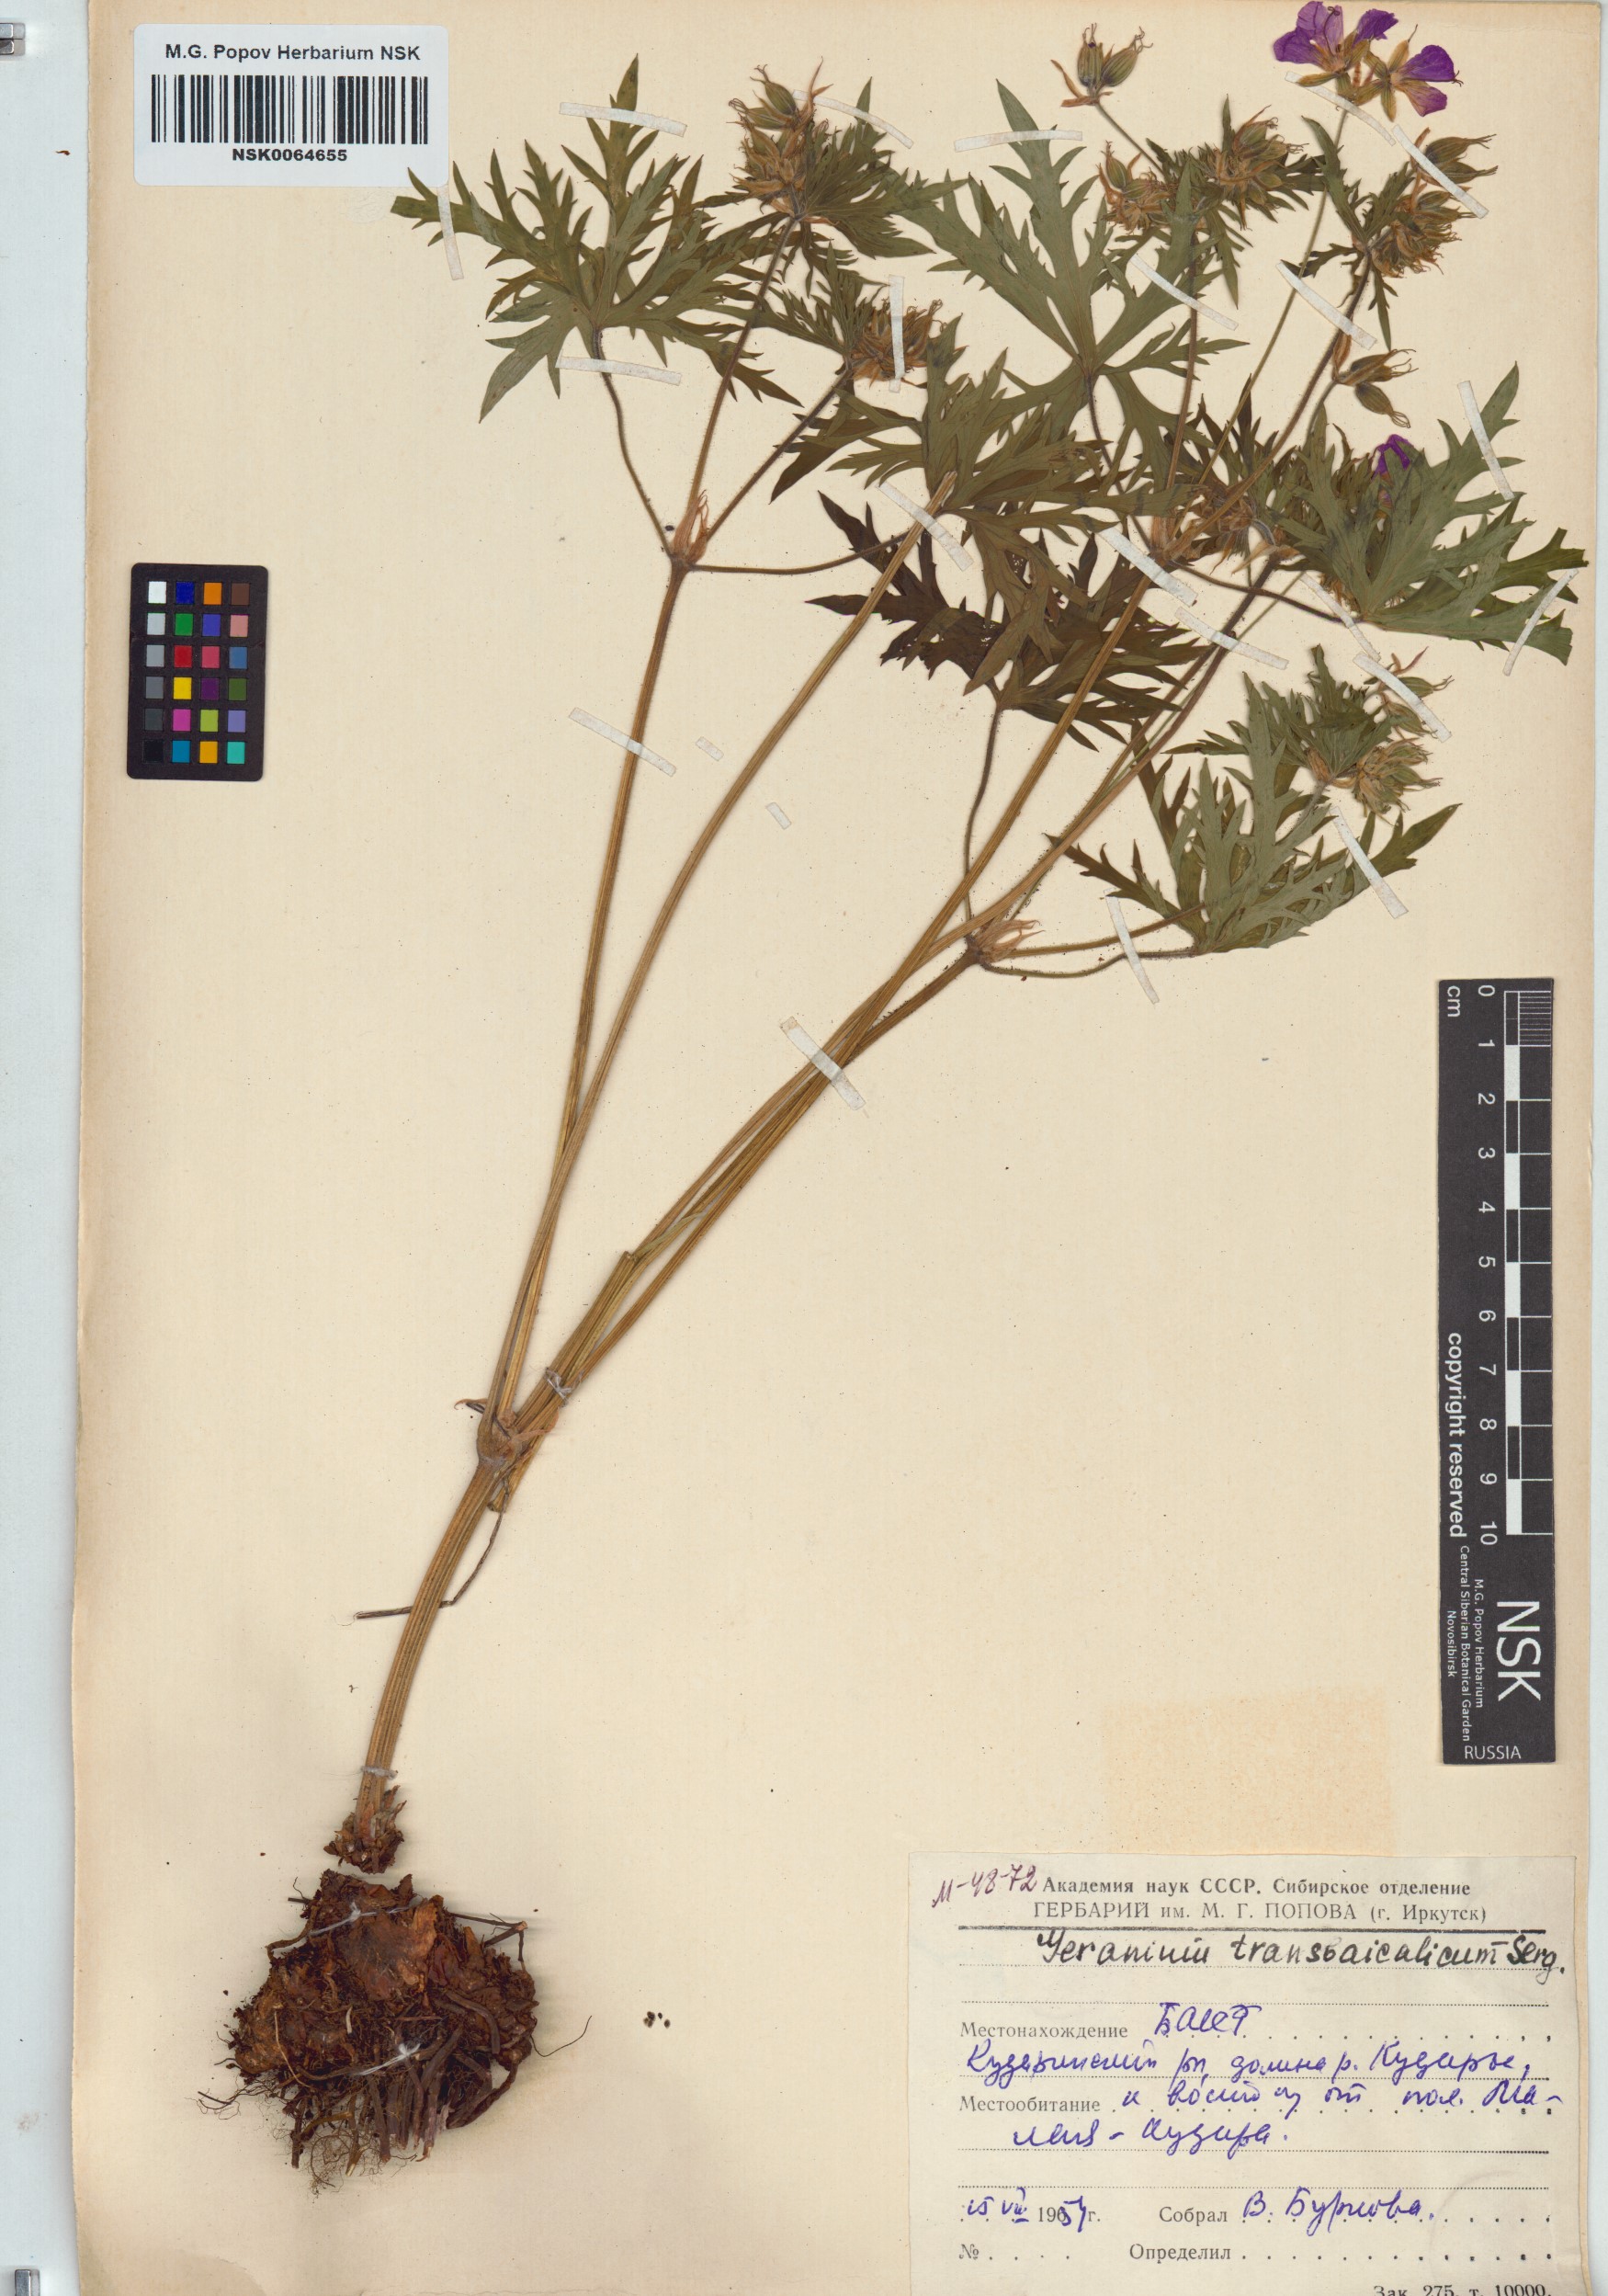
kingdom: Plantae
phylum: Tracheophyta
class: Magnoliopsida
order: Geraniales
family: Geraniaceae
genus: Geranium
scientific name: Geranium pratense
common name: Meadow crane's-bill
